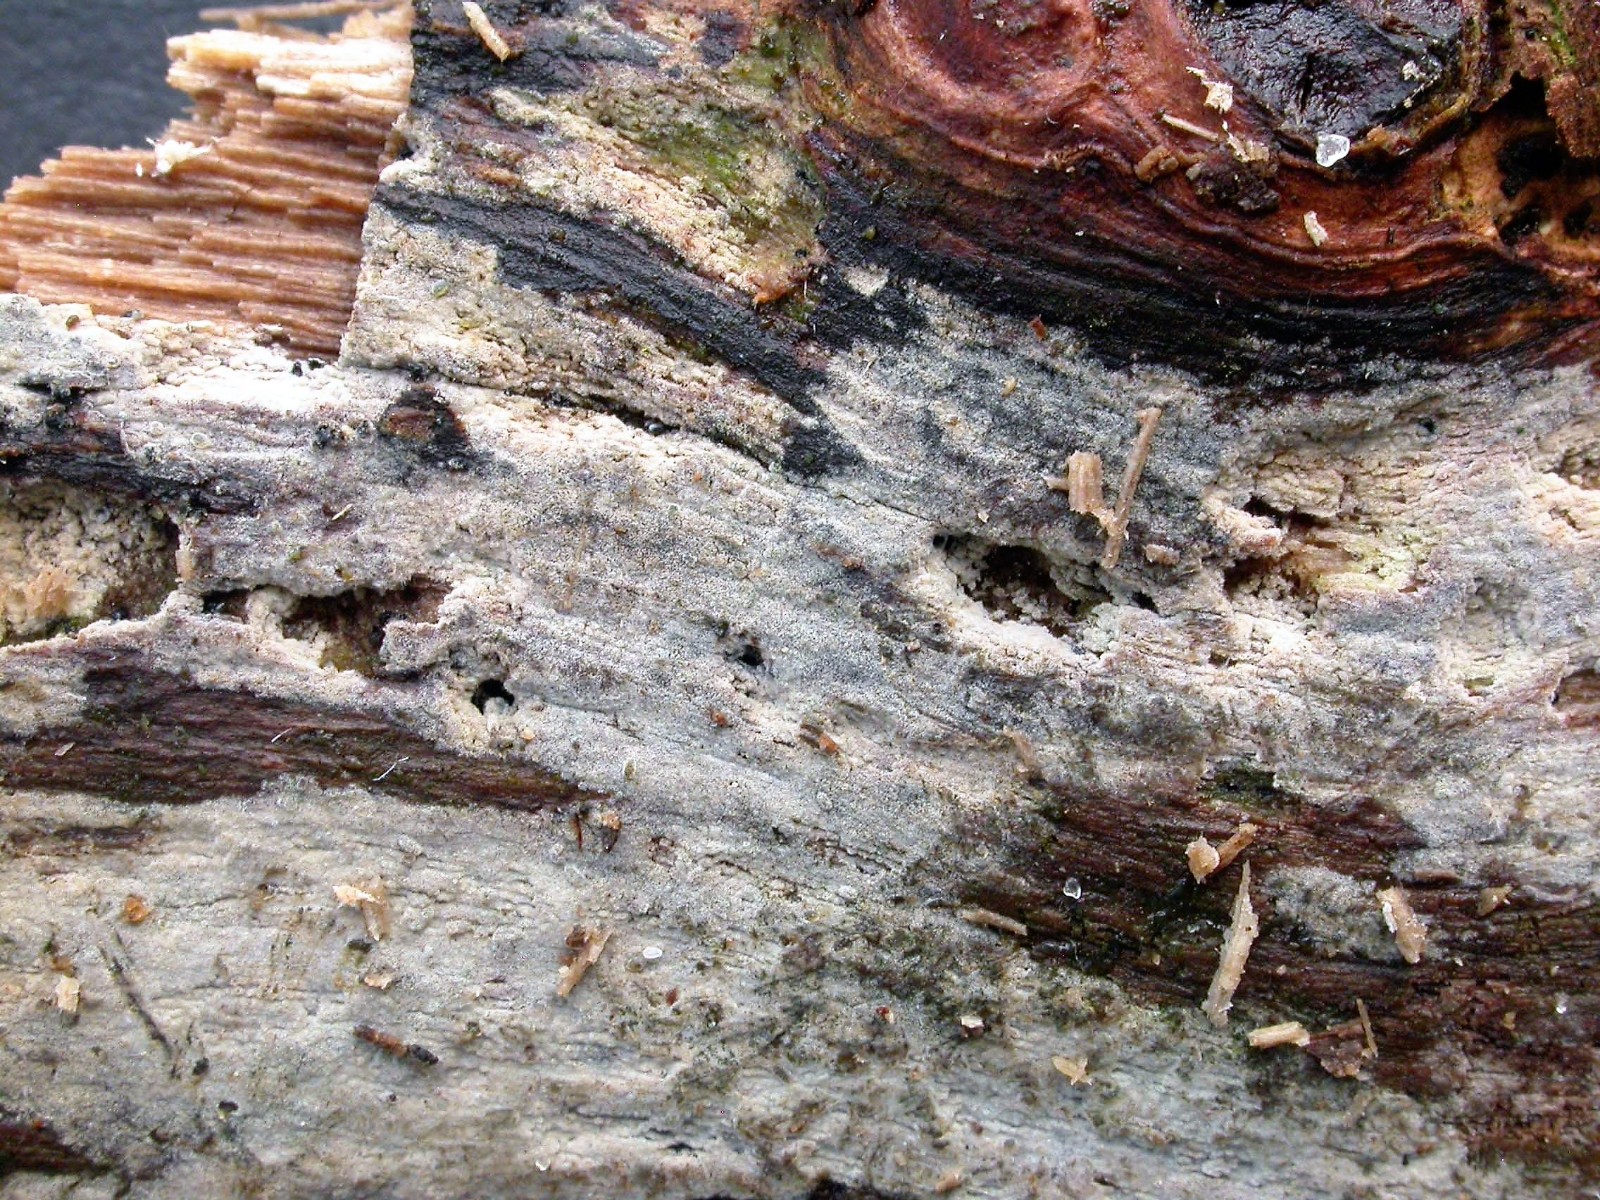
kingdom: Fungi
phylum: Basidiomycota
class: Agaricomycetes
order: Hymenochaetales
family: Rickenellaceae
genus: Peniophorella
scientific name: Peniophorella pallida
